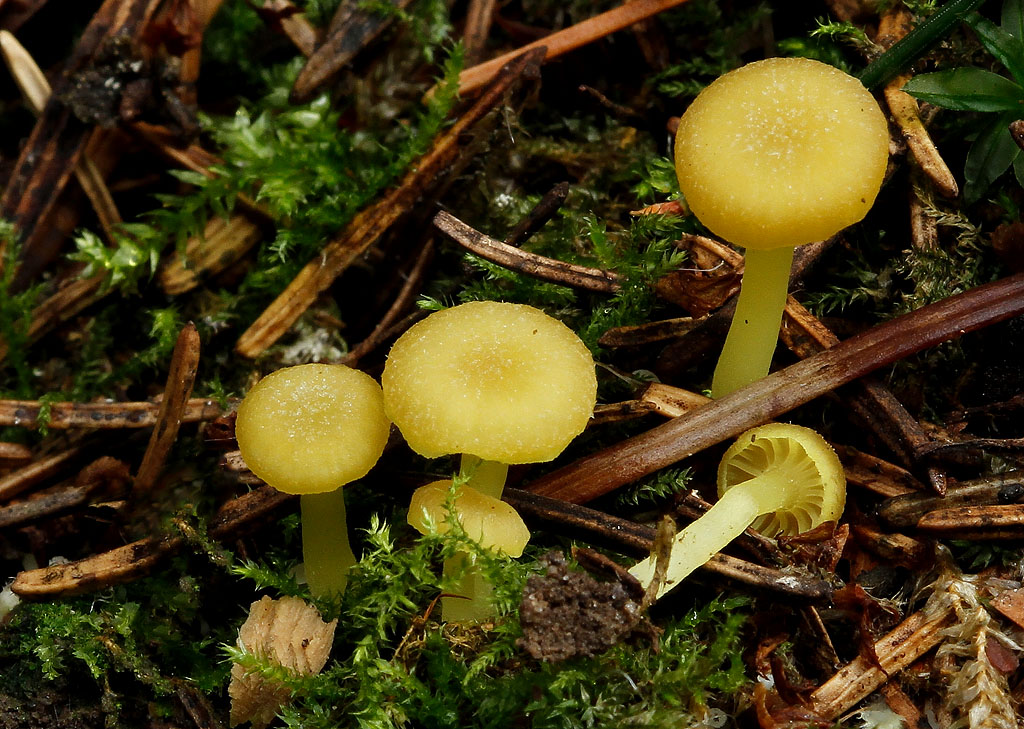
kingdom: Fungi
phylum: Basidiomycota
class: Agaricomycetes
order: Agaricales
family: Hygrophoraceae
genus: Chrysomphalina
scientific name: Chrysomphalina grossula
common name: stød-gyldenblad
